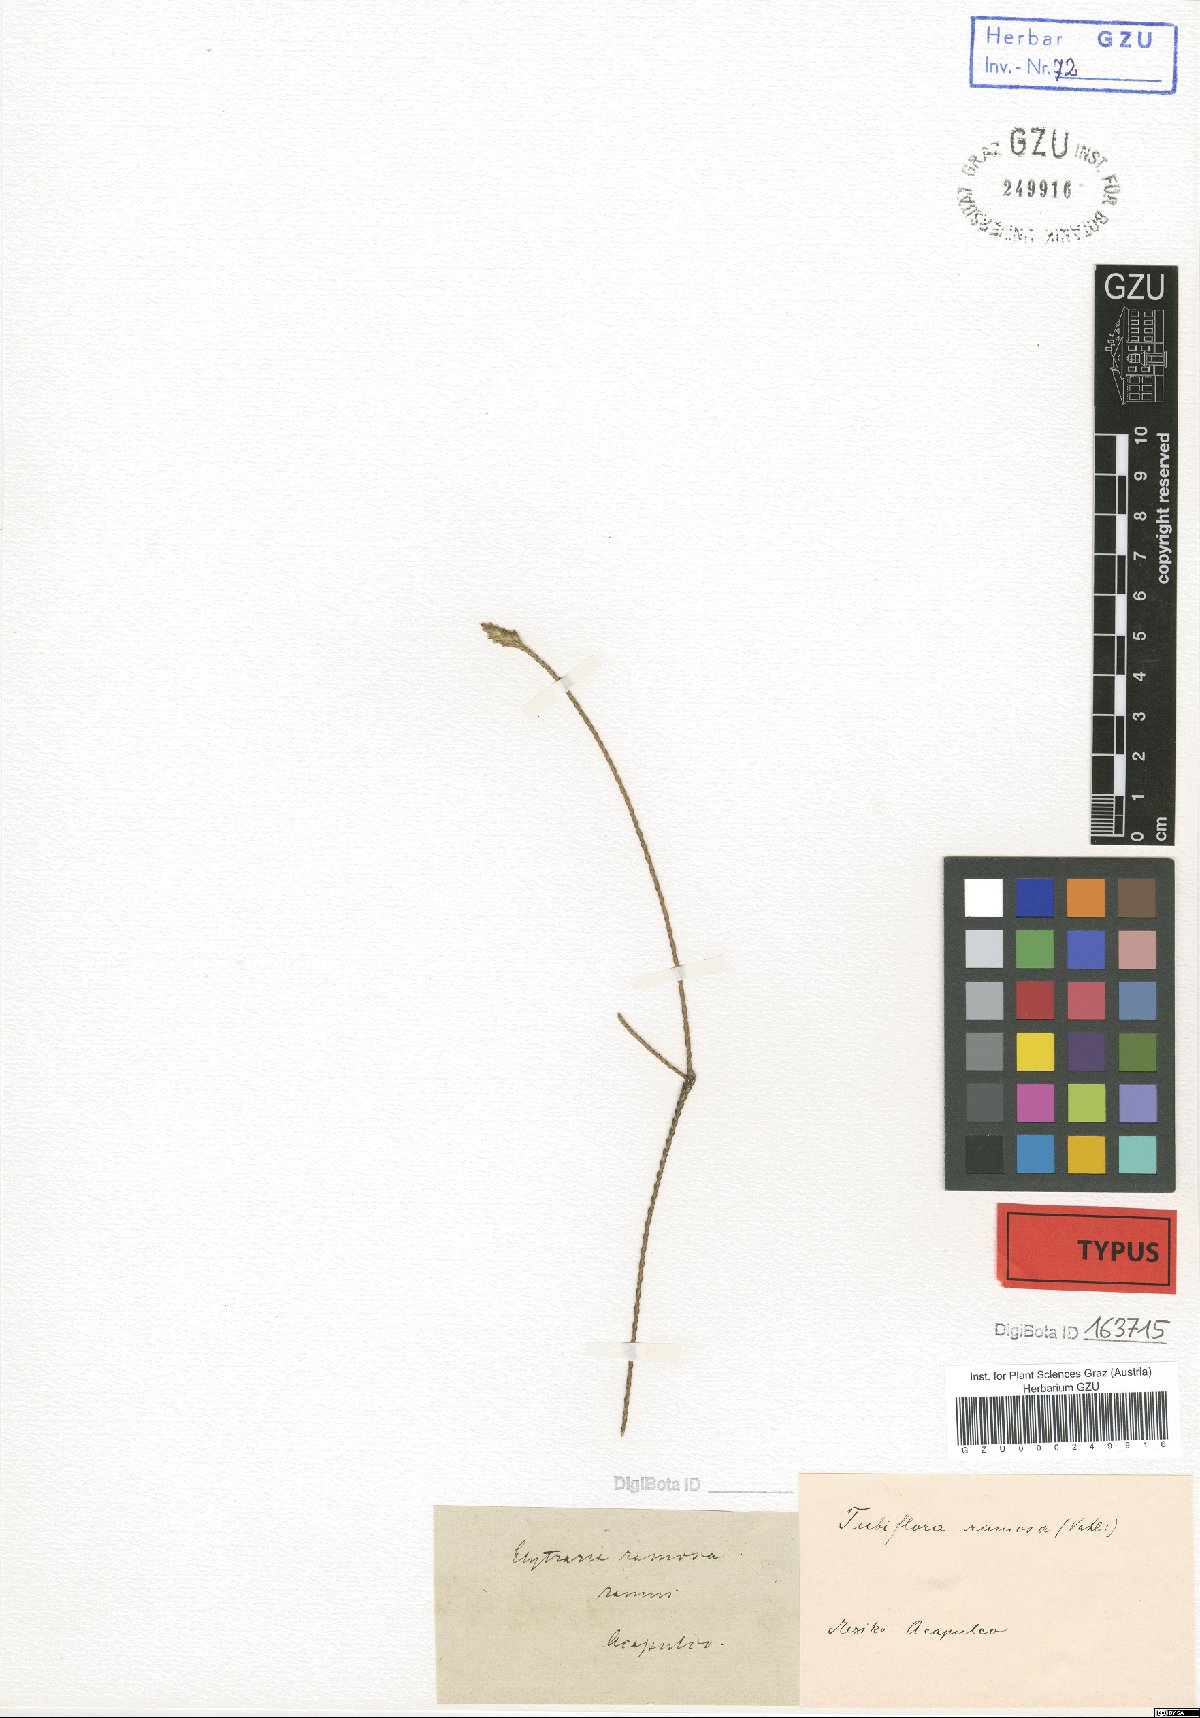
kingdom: Plantae
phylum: Tracheophyta
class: Magnoliopsida
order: Lamiales
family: Acanthaceae
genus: Elytraria
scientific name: Elytraria imbricata
